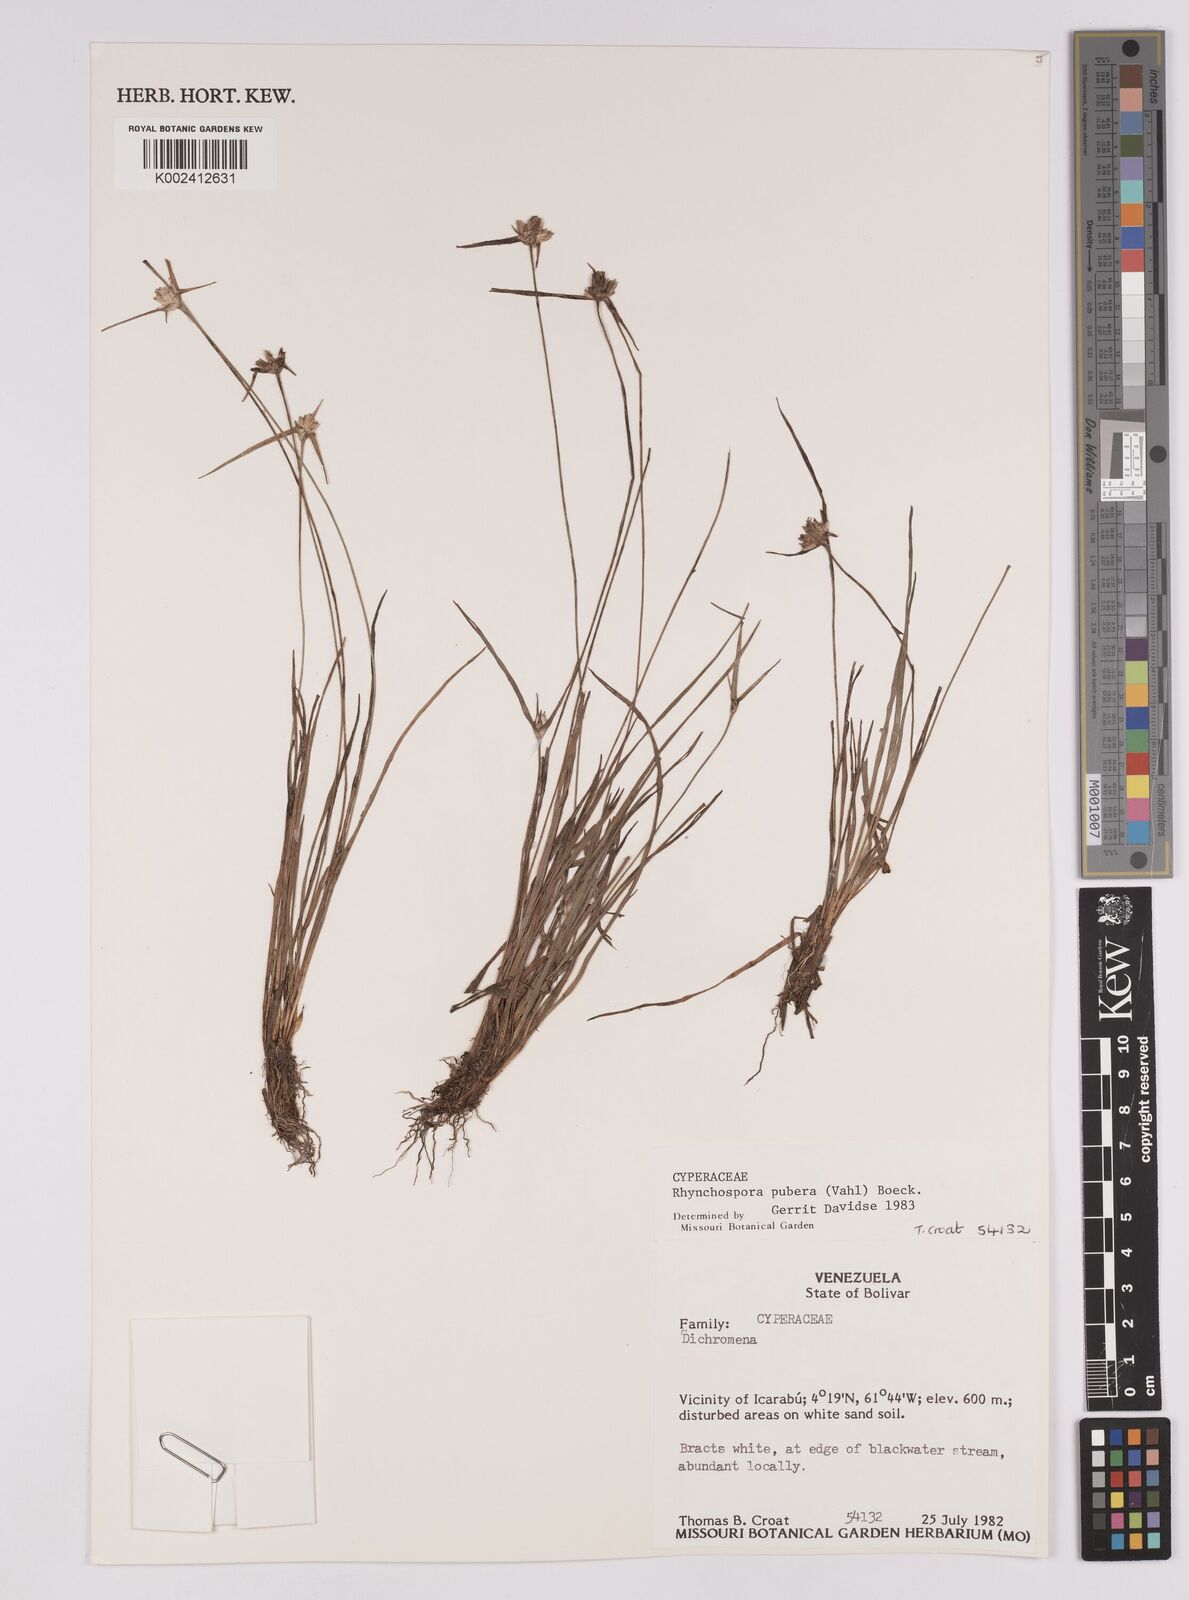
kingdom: Plantae
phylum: Tracheophyta
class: Liliopsida
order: Poales
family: Cyperaceae
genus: Rhynchospora
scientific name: Rhynchospora pubera
